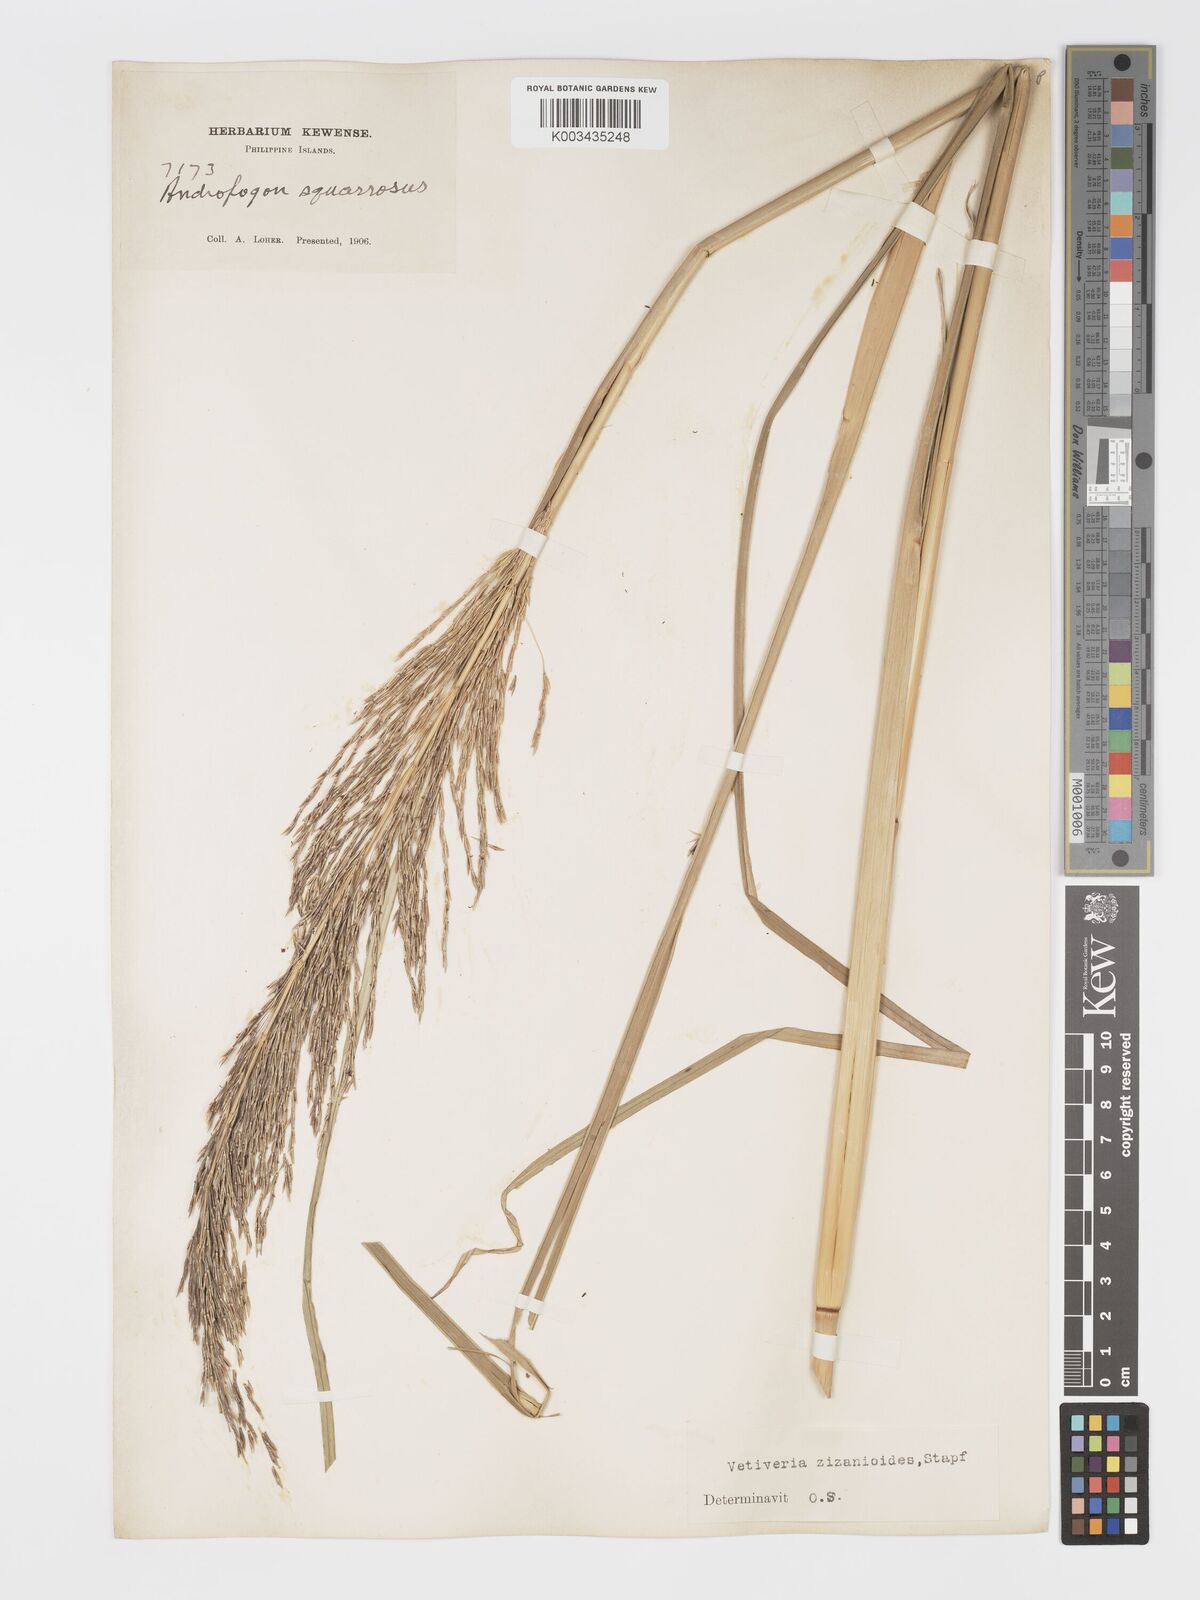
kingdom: Plantae
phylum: Tracheophyta
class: Liliopsida
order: Poales
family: Poaceae
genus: Chrysopogon
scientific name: Chrysopogon zizanioides
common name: False beardgrass
